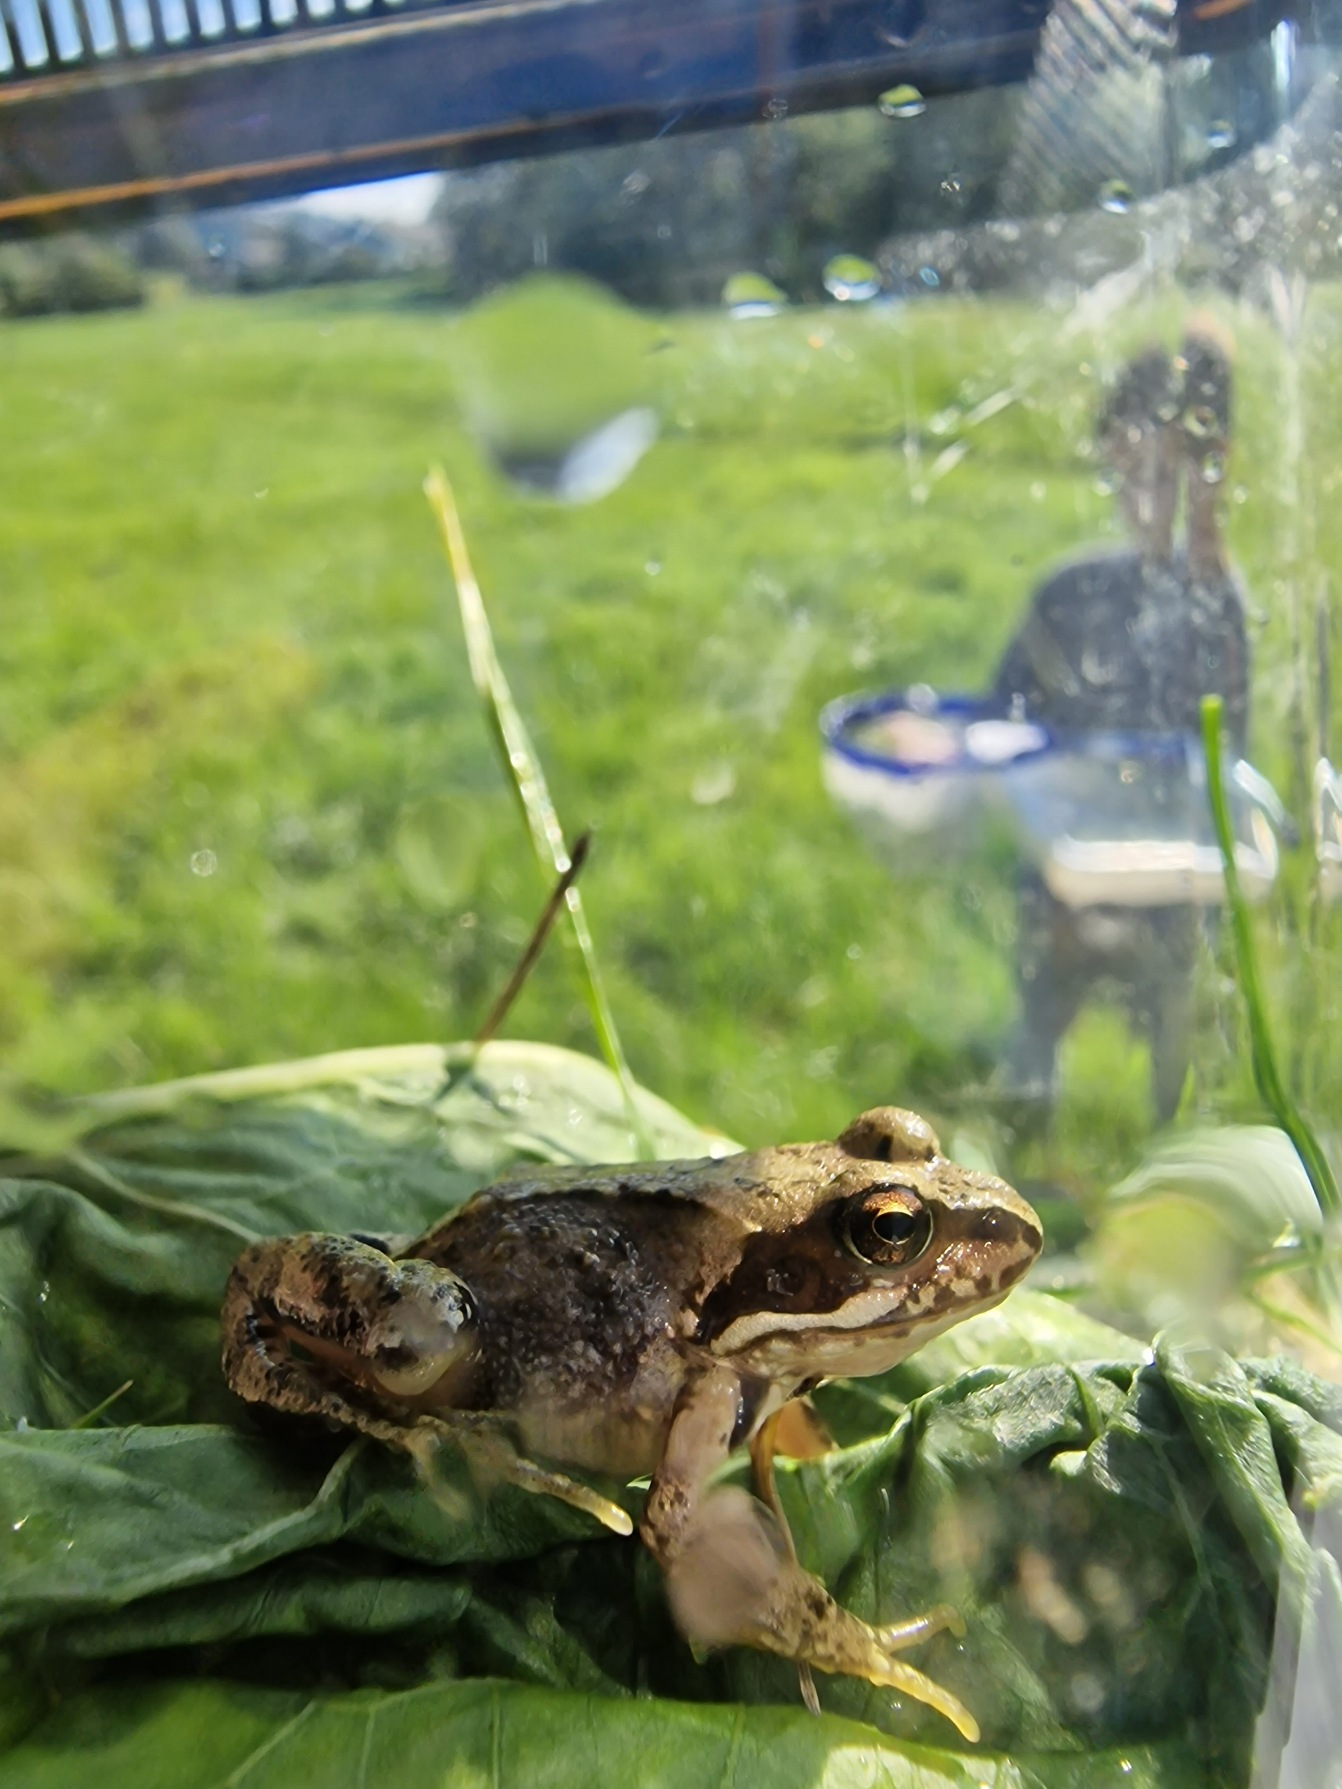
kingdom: Animalia
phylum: Chordata
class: Amphibia
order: Anura
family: Ranidae
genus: Rana
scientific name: Rana temporaria
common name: Butsnudet frø
